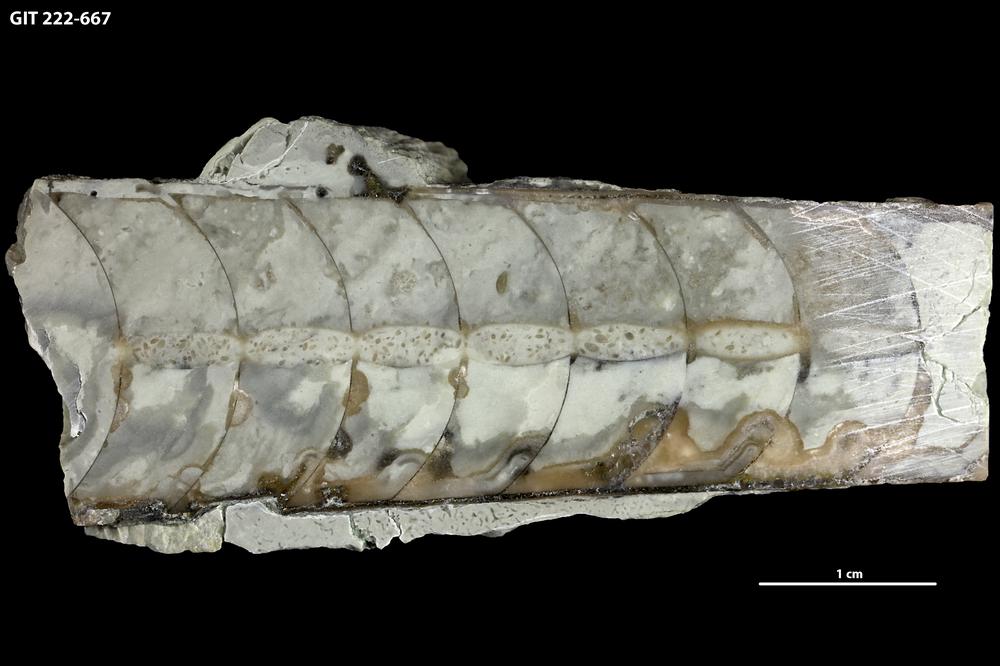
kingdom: Animalia
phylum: Mollusca
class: Cephalopoda
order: Orthocerida
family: Geisonoceratidae
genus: Ordogeisonoceras
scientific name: Ordogeisonoceras tartuensis
